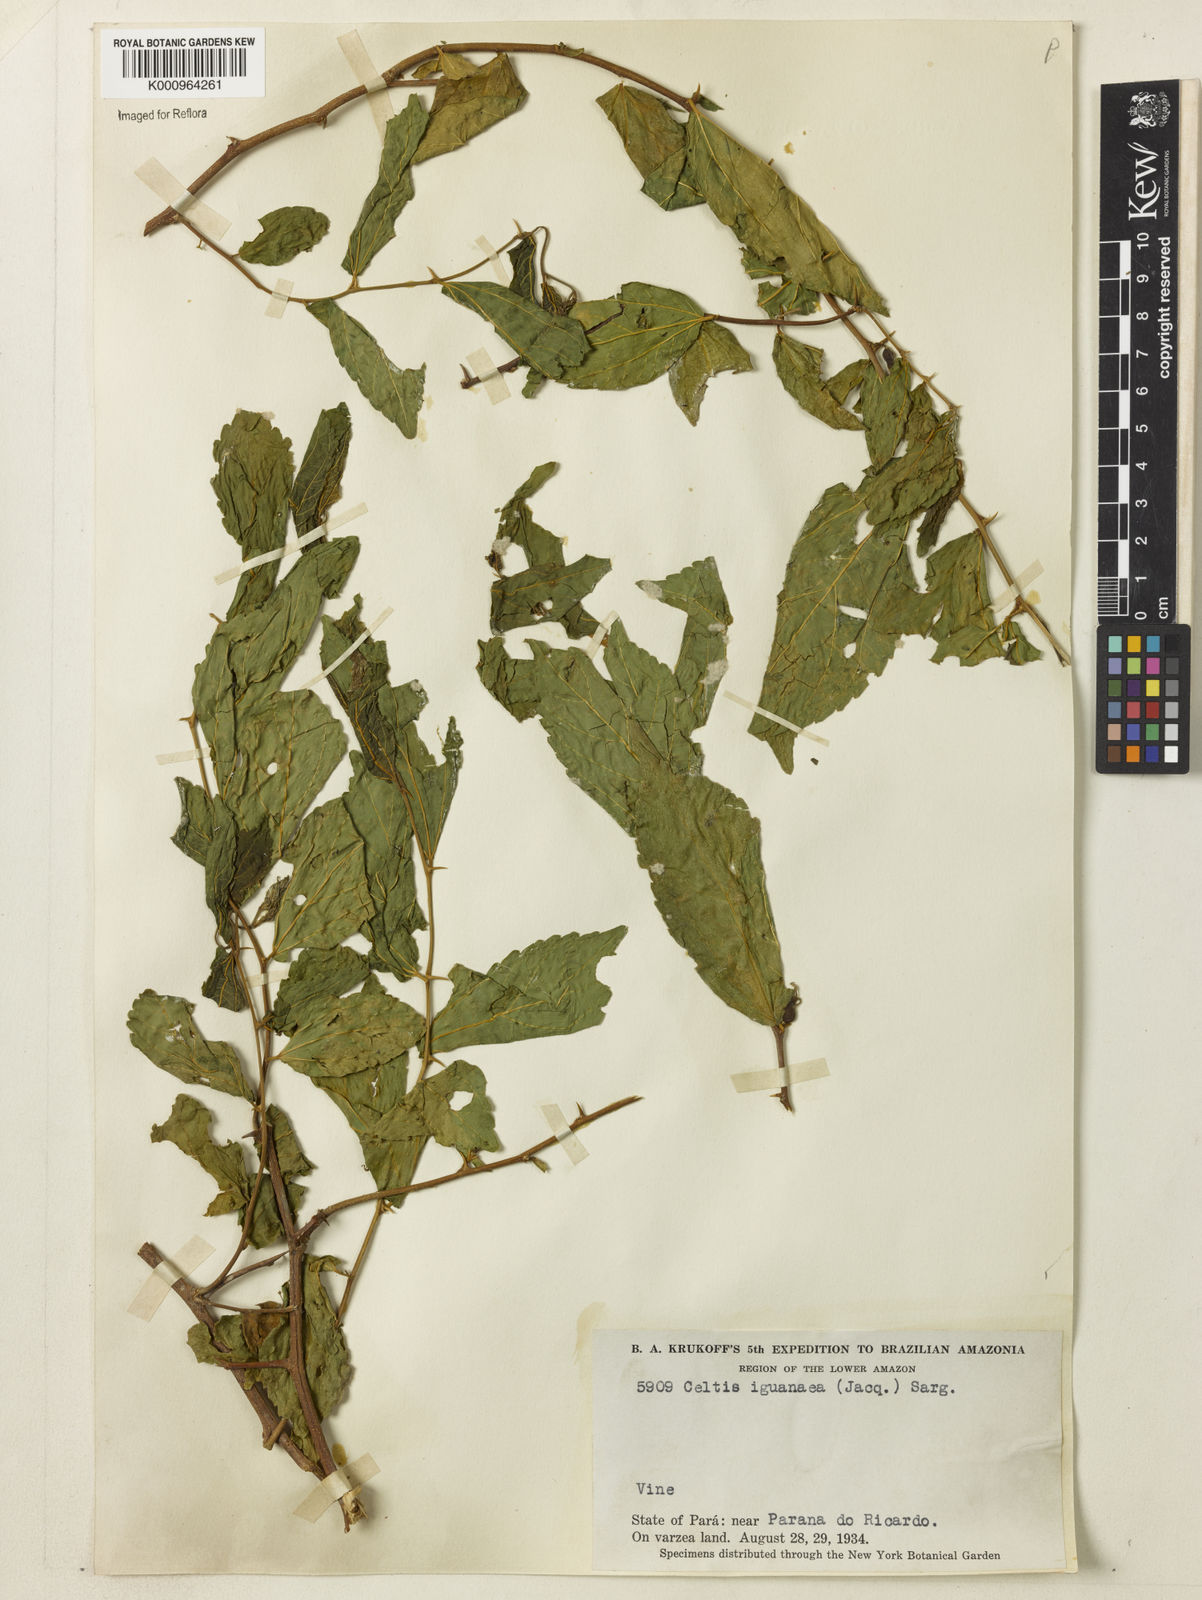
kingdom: Plantae
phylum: Tracheophyta
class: Magnoliopsida
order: Rosales
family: Cannabaceae
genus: Celtis
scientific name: Celtis iguanaea
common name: Iguana hackberry
